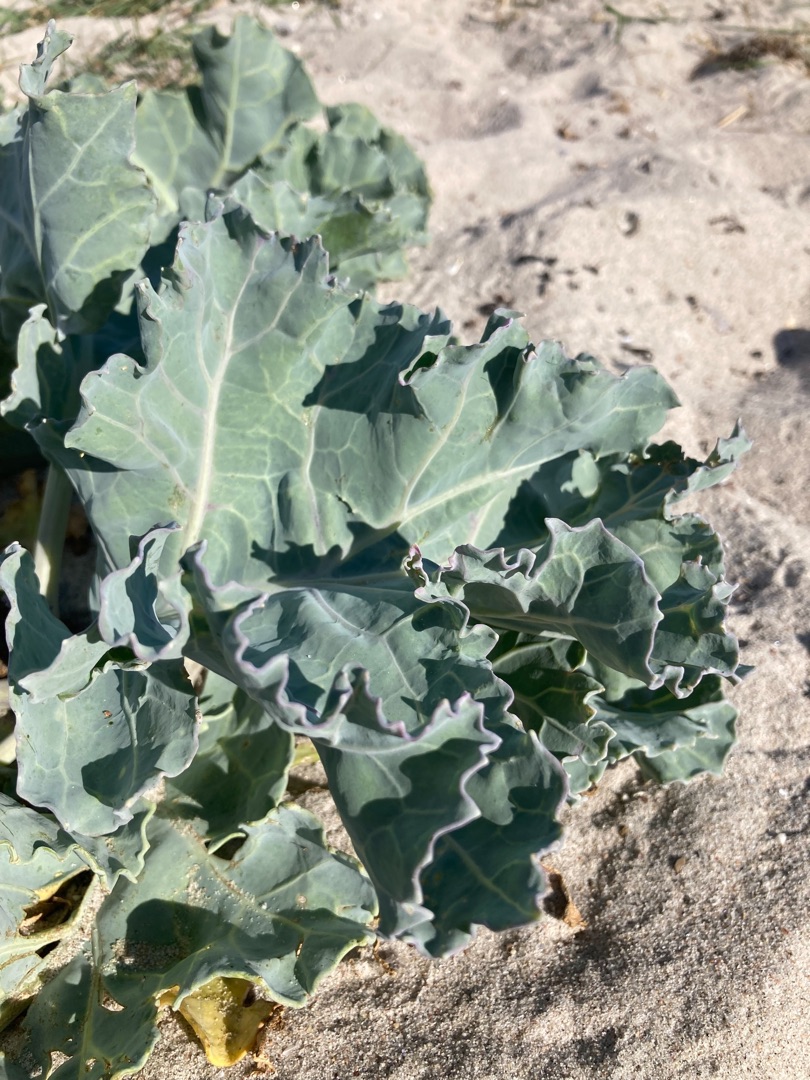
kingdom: Plantae
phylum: Tracheophyta
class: Magnoliopsida
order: Brassicales
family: Brassicaceae
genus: Crambe
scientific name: Crambe maritima
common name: Strandkål
